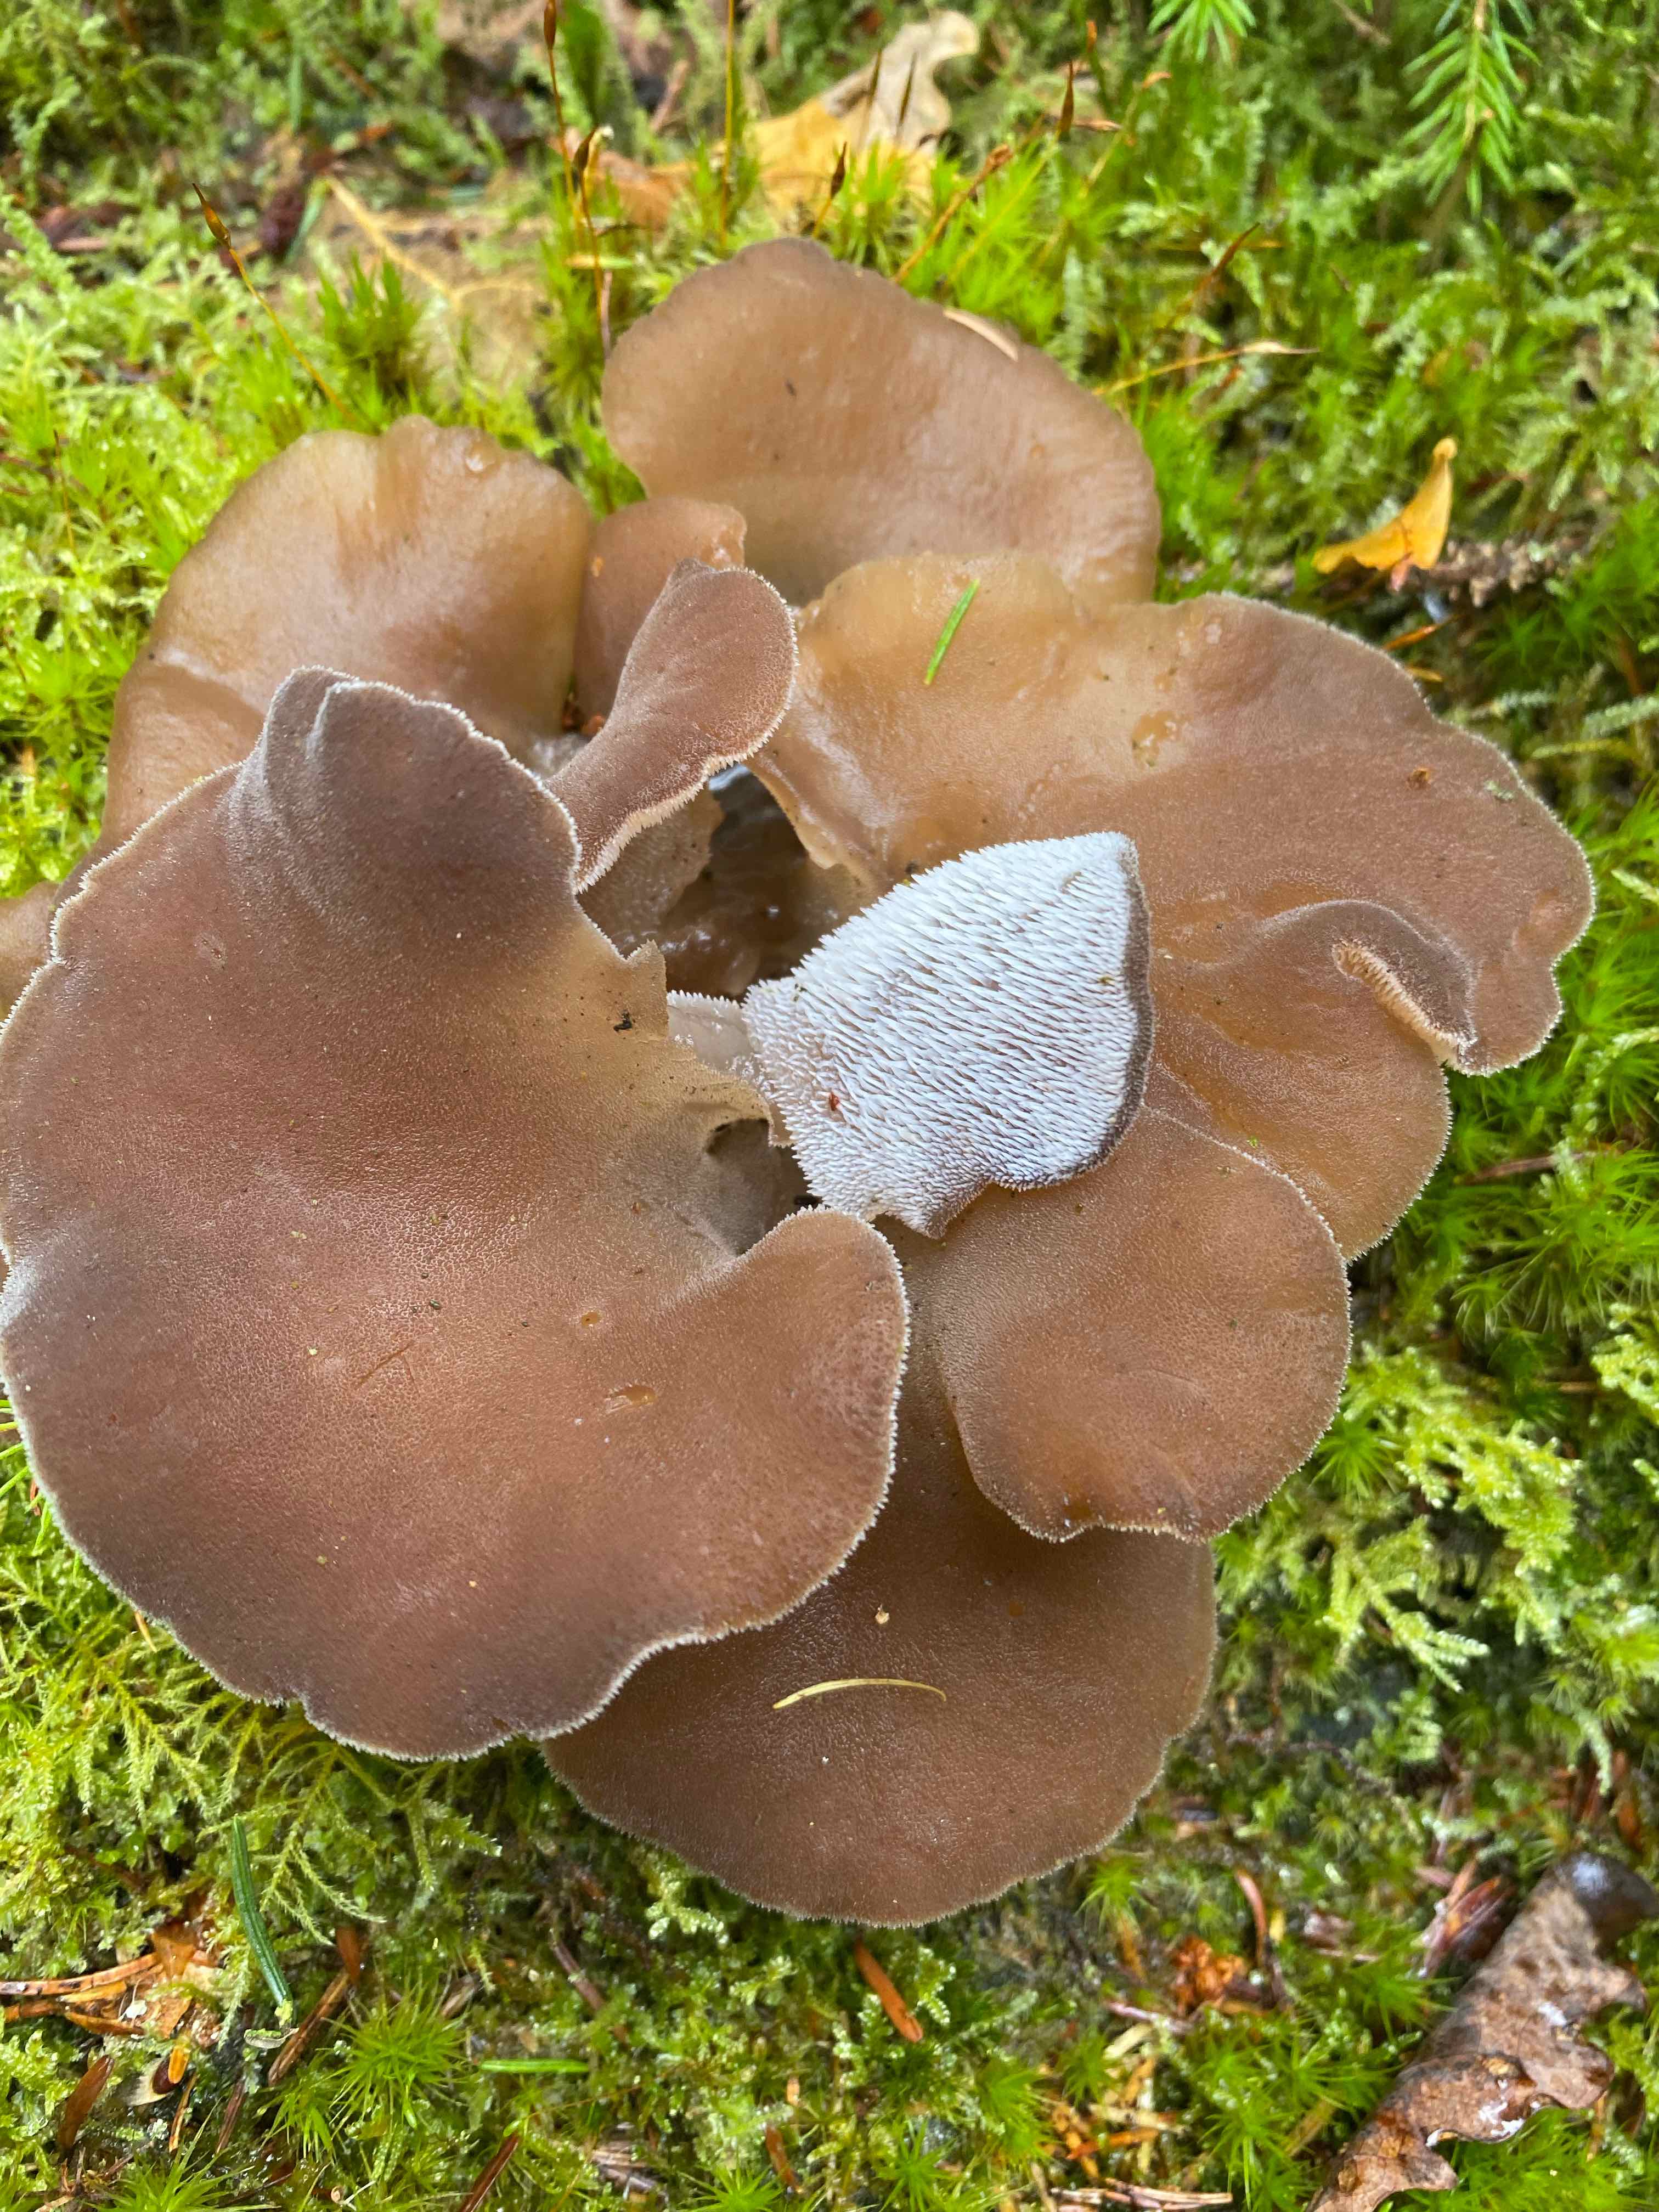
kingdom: Fungi
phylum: Basidiomycota
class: Agaricomycetes
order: Auriculariales
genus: Pseudohydnum
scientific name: Pseudohydnum gelatinosum
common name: bævretand
